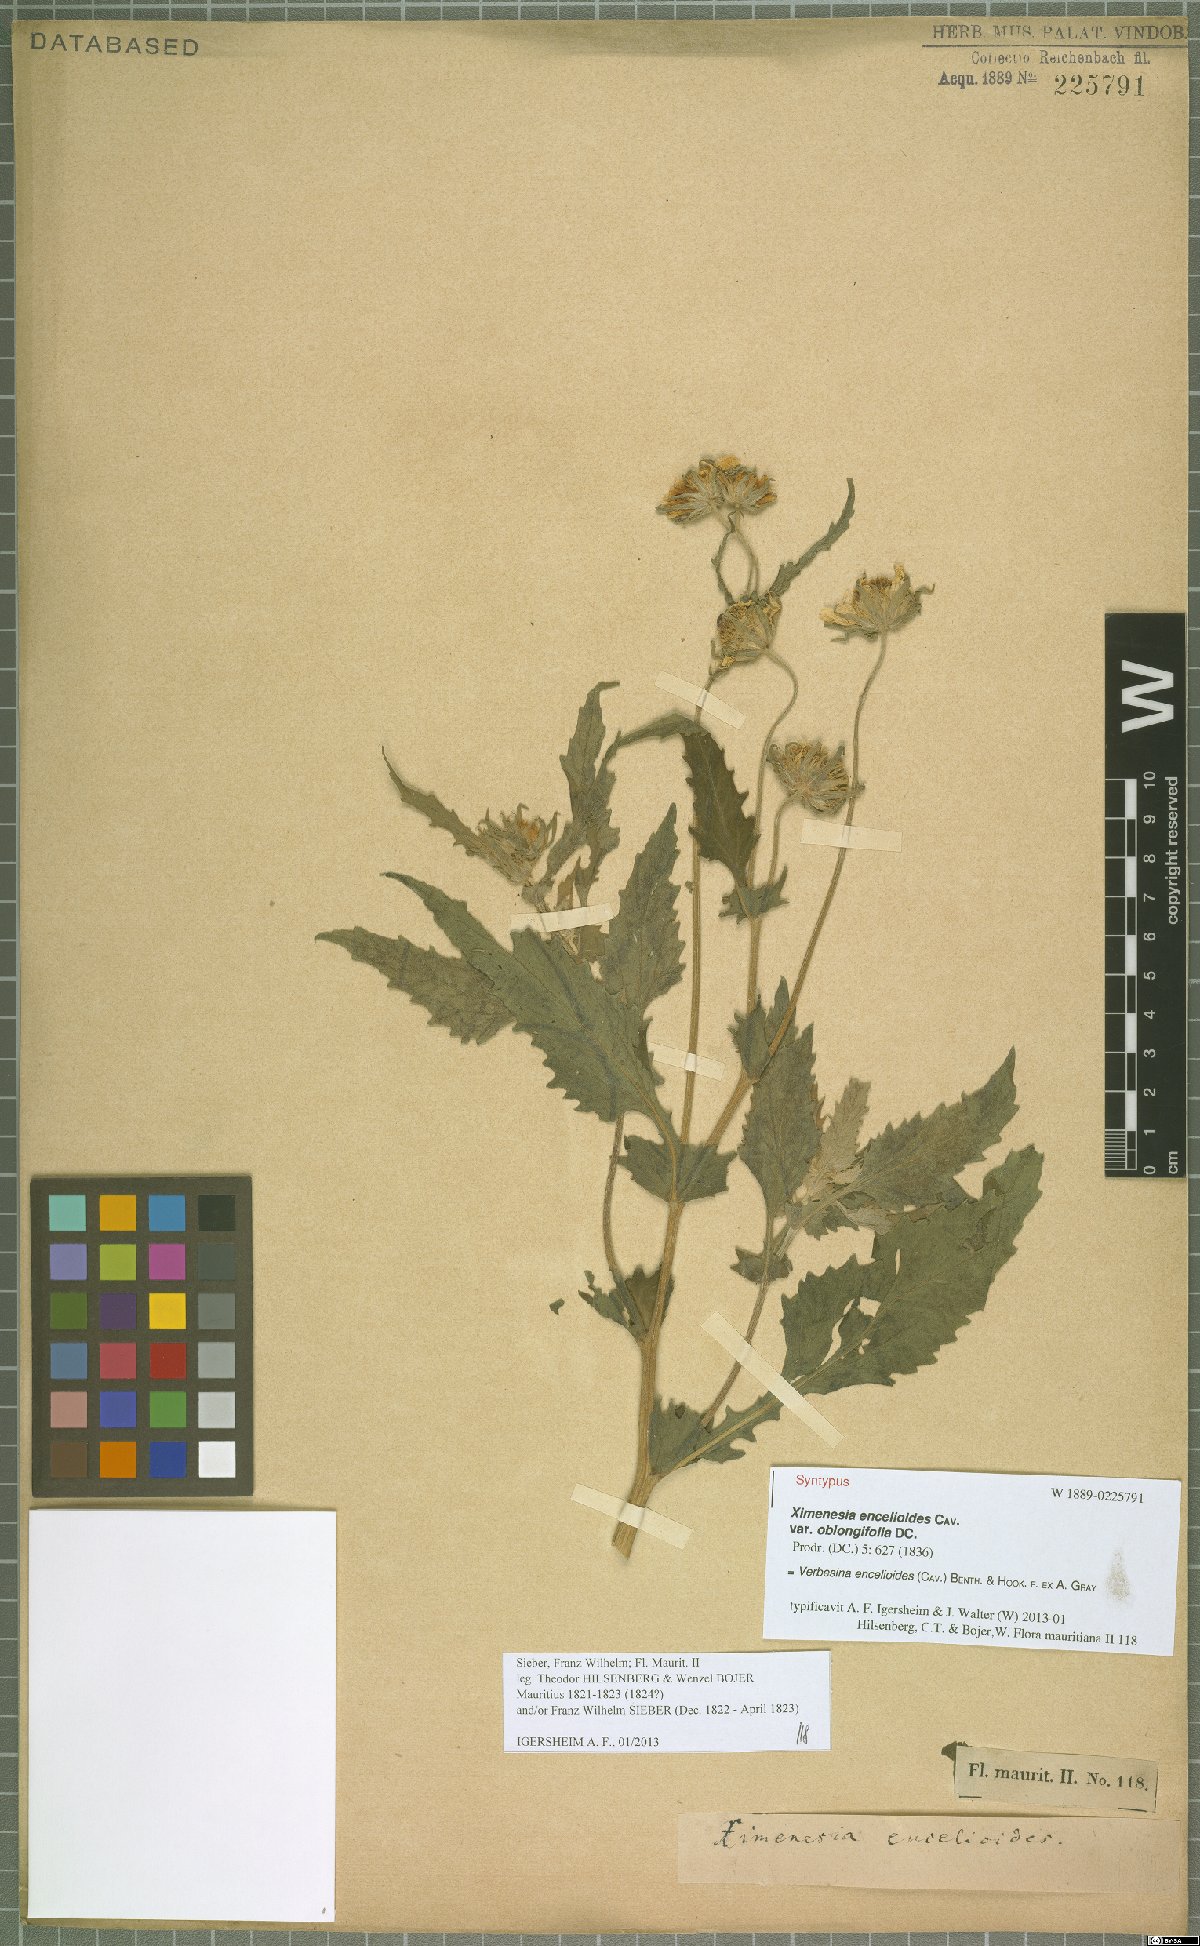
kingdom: Plantae
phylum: Tracheophyta
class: Magnoliopsida
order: Asterales
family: Asteraceae
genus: Verbesina
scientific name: Verbesina encelioides
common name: Golden crownbeard
